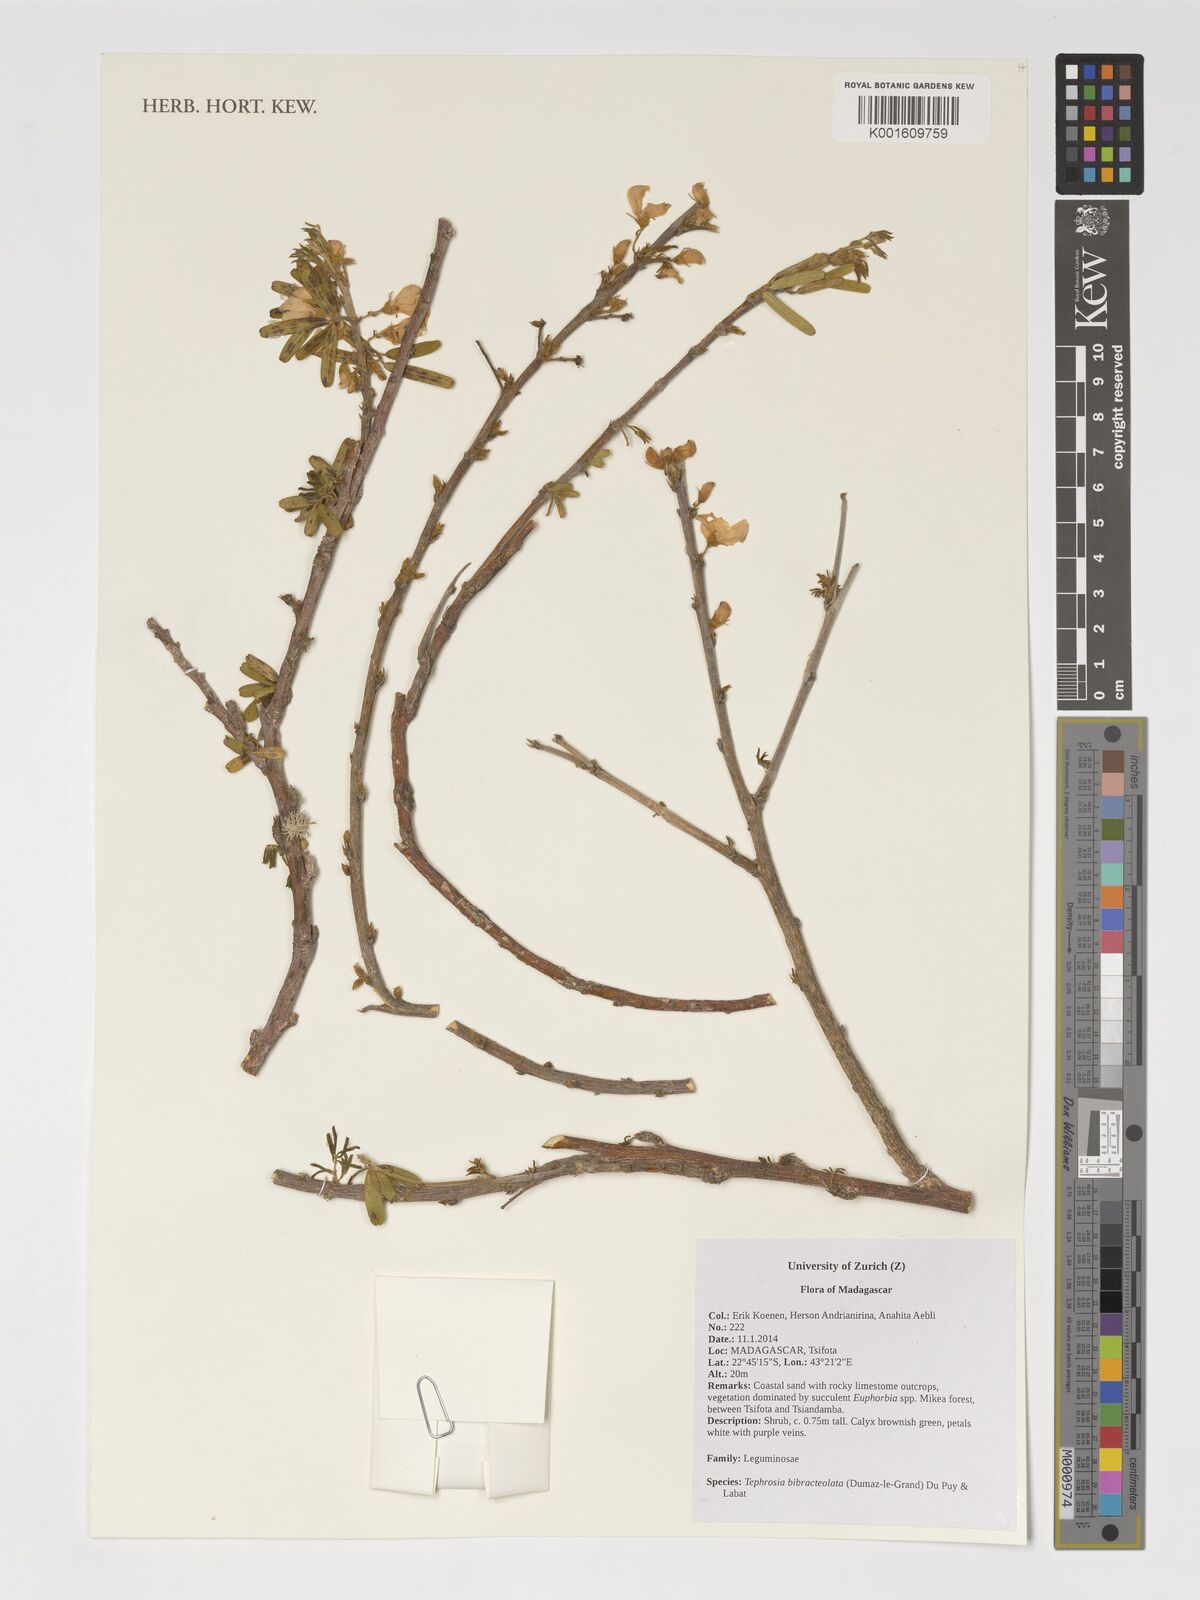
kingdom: Plantae
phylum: Tracheophyta
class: Magnoliopsida
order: Fabales
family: Fabaceae
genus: Tephrosia
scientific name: Tephrosia bibracteolata
